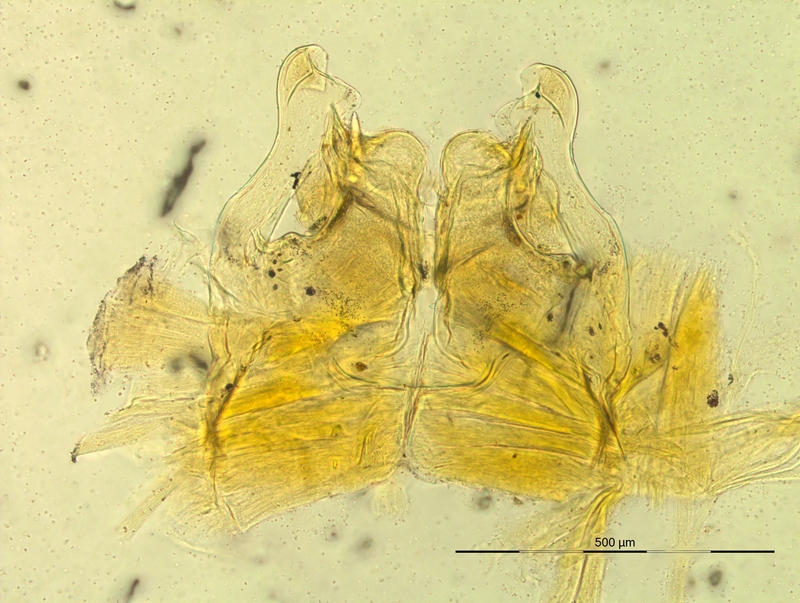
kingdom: Animalia
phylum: Arthropoda
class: Diplopoda
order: Chordeumatida
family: Craspedosomatidae
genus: Oroposoma
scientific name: Oroposoma catascaphium
